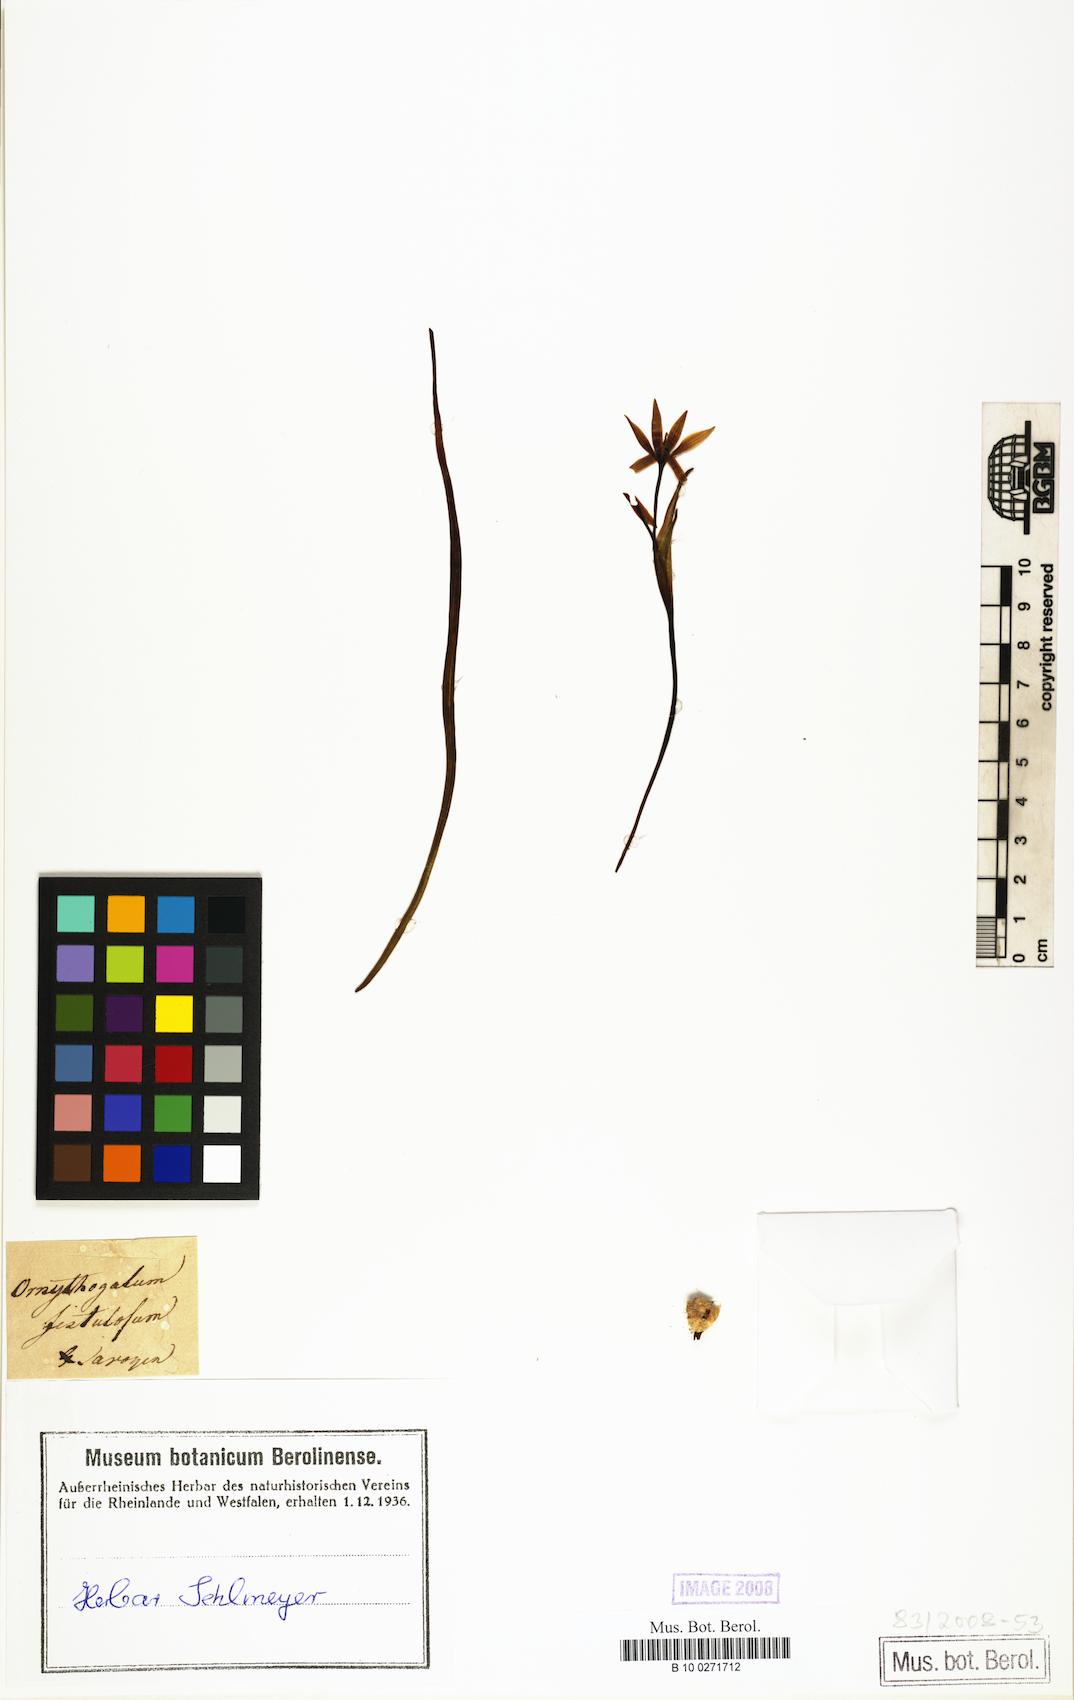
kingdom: Plantae
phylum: Tracheophyta
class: Liliopsida
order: Liliales
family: Liliaceae
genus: Gagea
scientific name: Gagea bohemica
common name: Early star-of-bethlehem
